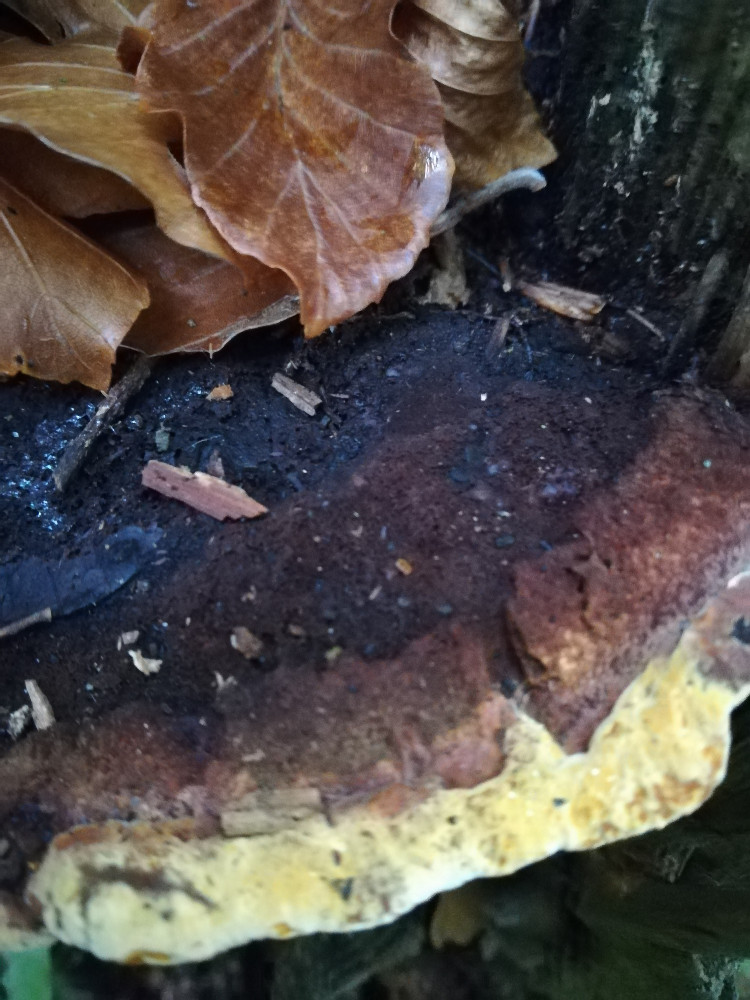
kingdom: Fungi
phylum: Basidiomycota
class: Agaricomycetes
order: Gloeophyllales
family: Gloeophyllaceae
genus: Gloeophyllum
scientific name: Gloeophyllum odoratum
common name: duftende korkhat
